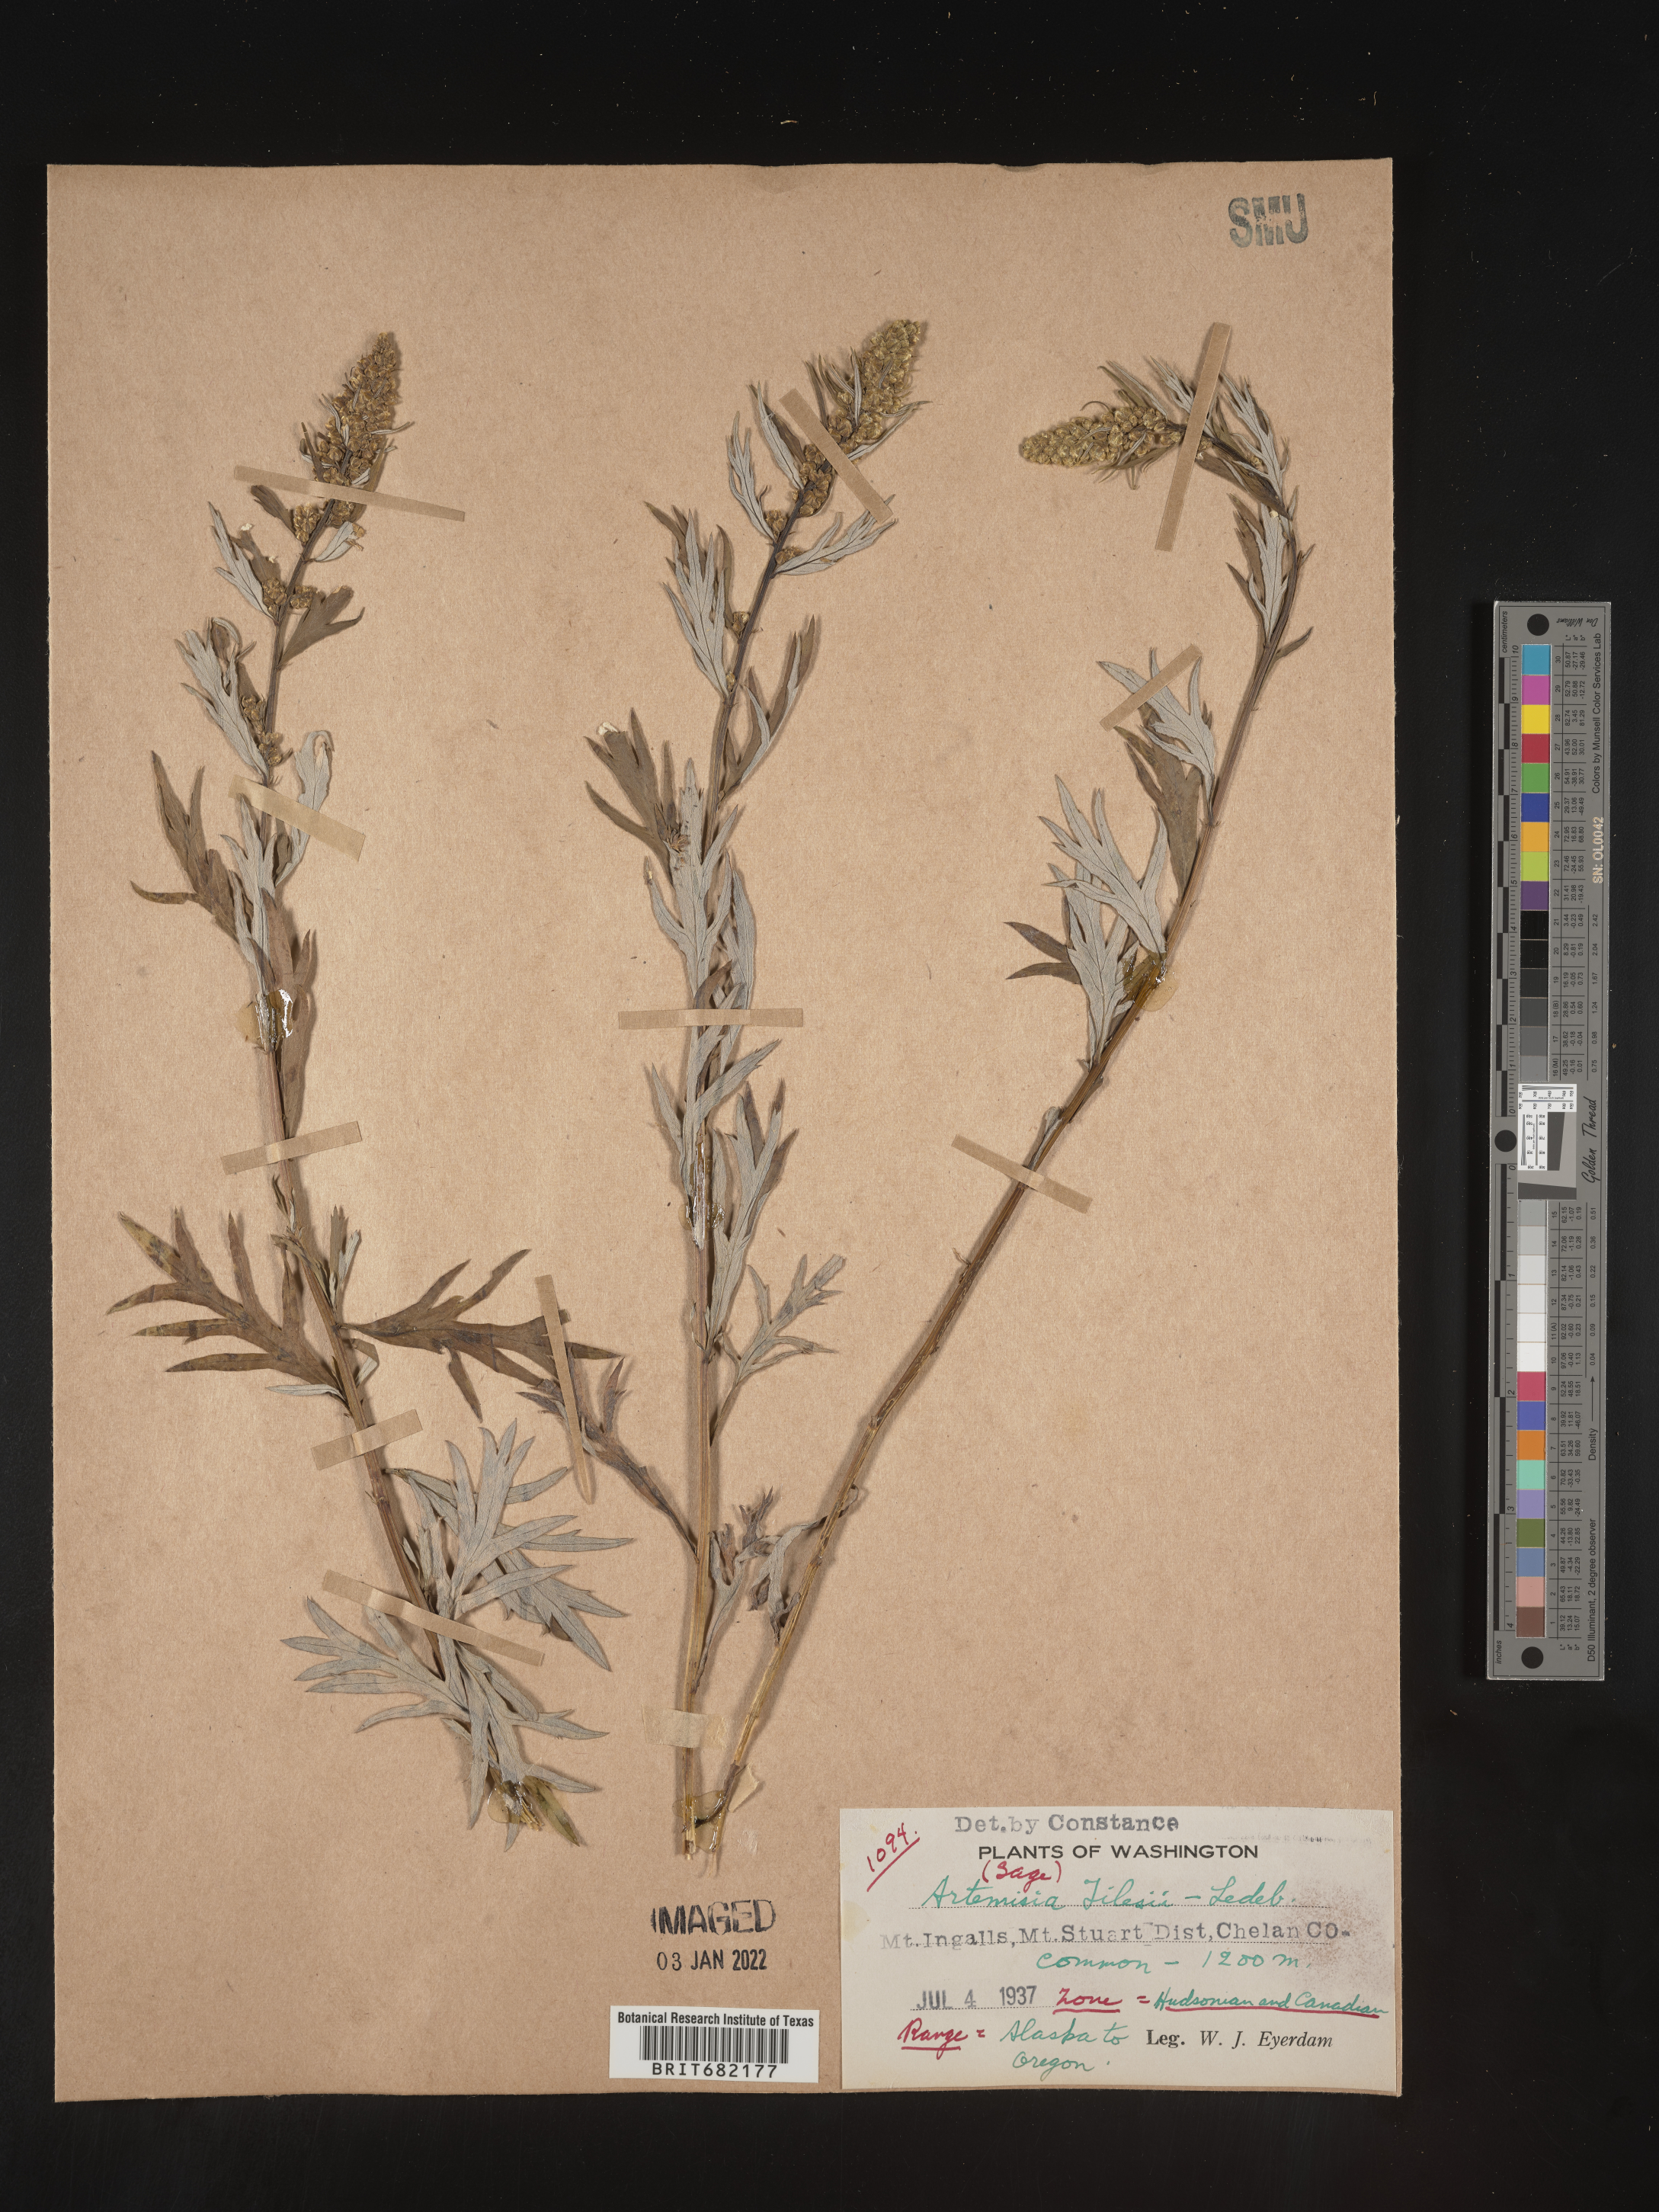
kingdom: Plantae
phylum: Tracheophyta
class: Magnoliopsida
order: Asterales
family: Asteraceae
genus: Artemisia
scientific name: Artemisia tilesii
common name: Aleutian mugwort
